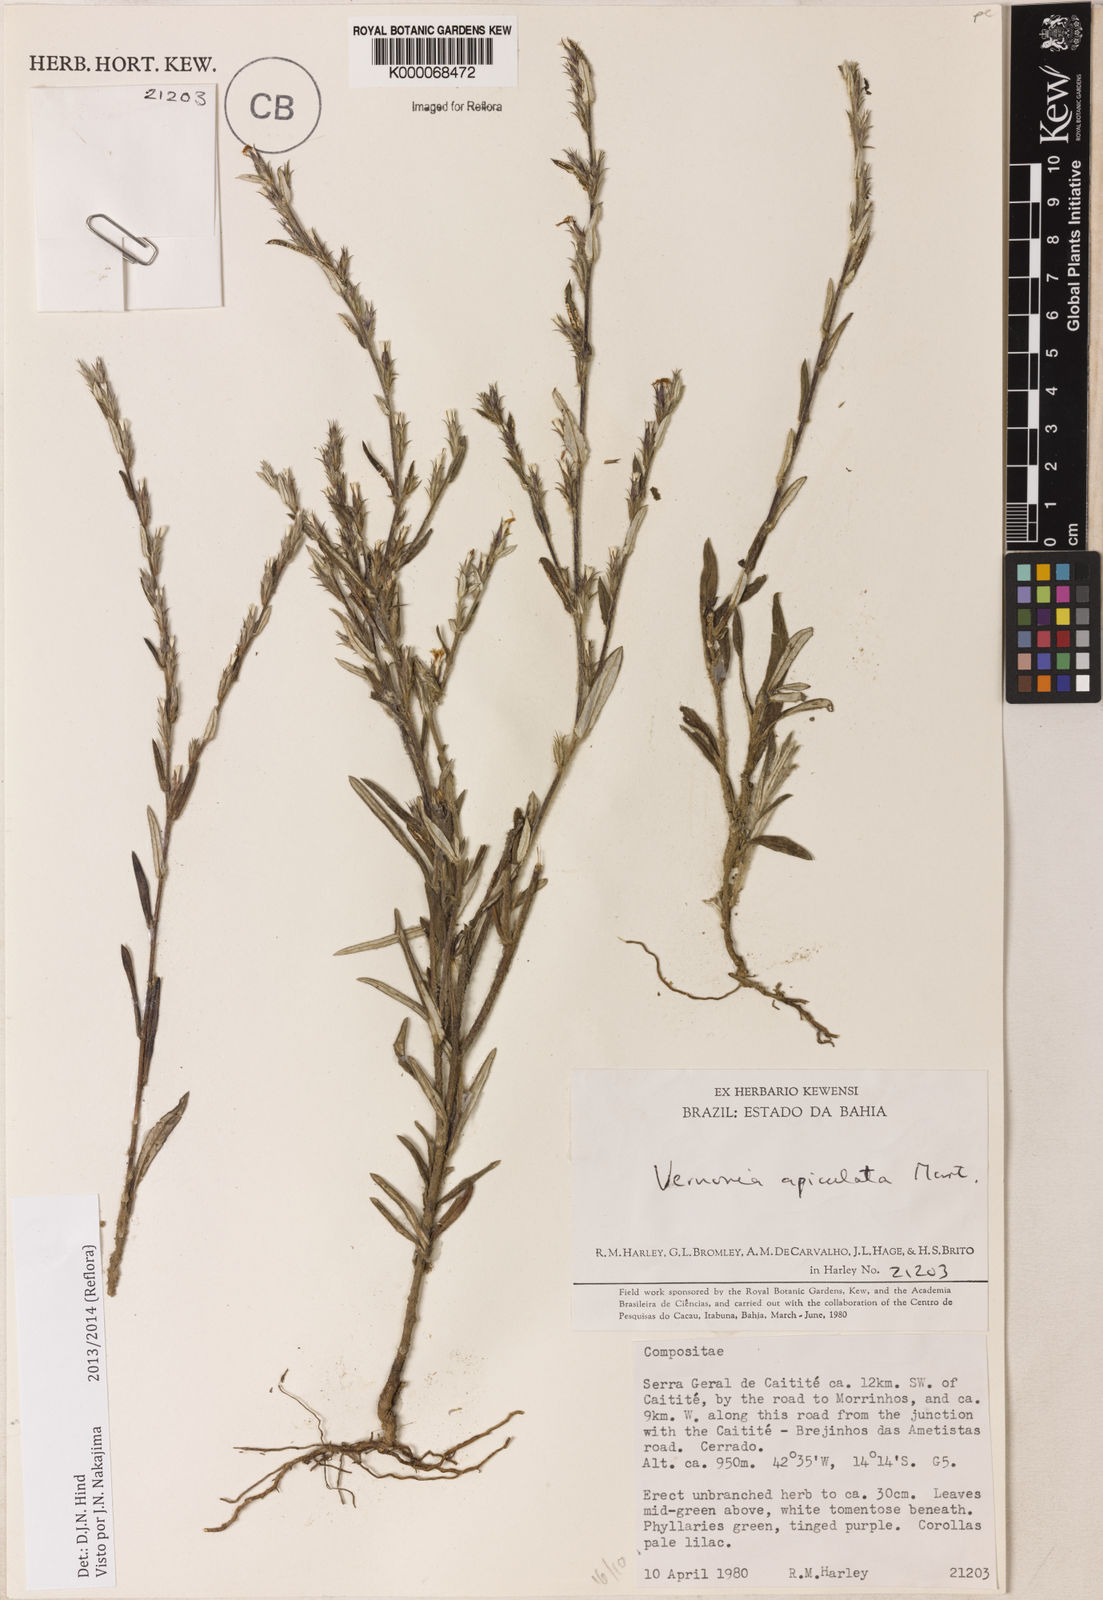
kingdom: Plantae
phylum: Tracheophyta
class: Magnoliopsida
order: Asterales
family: Asteraceae
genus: Stenocephalum
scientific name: Stenocephalum apiculatum
